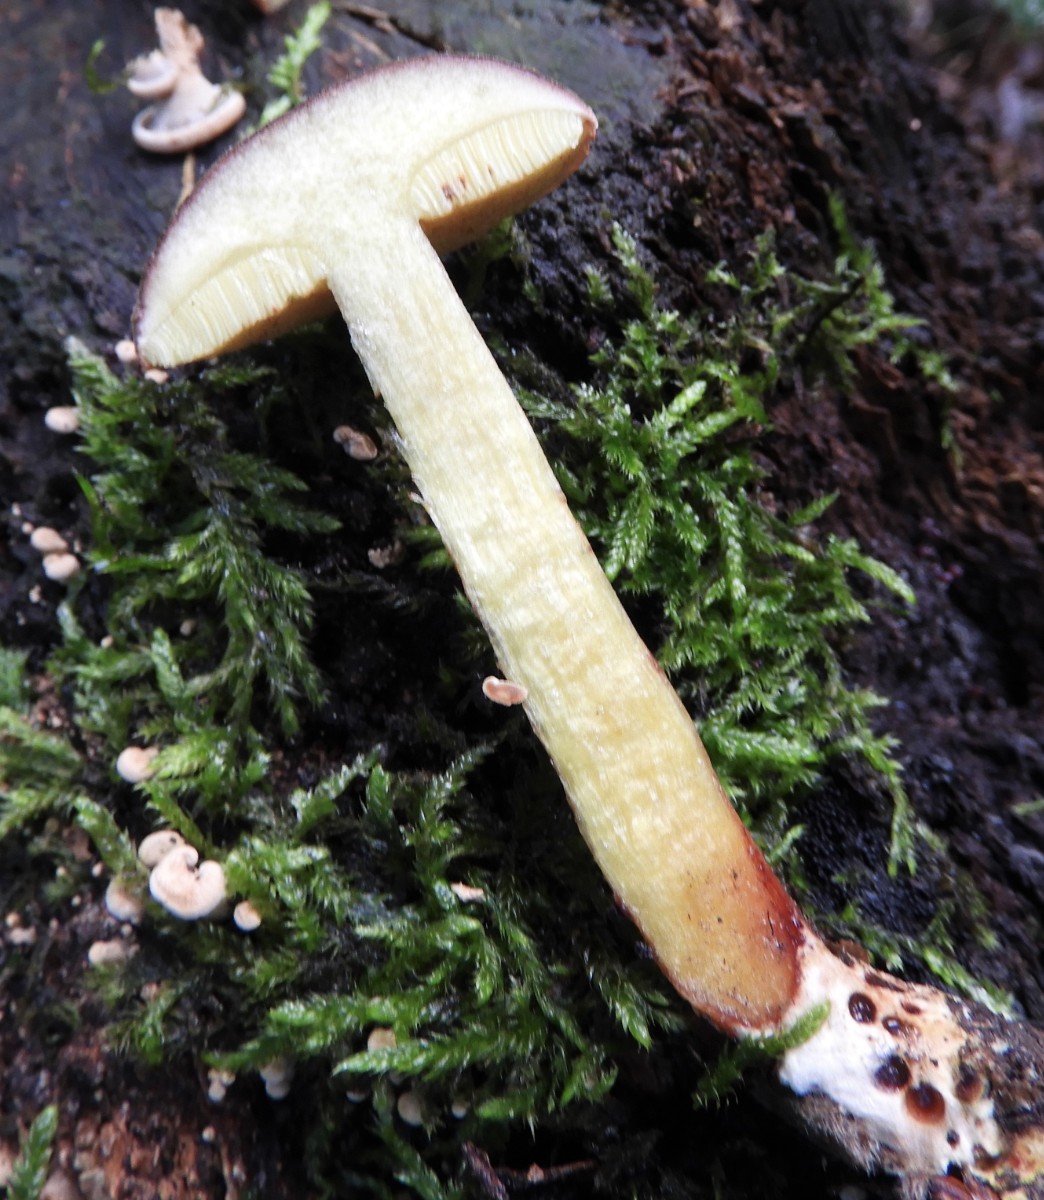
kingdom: Fungi
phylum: Basidiomycota
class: Agaricomycetes
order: Boletales
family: Boletaceae
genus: Xerocomellus
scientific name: Xerocomellus pruinatus
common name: dugget rørhat
